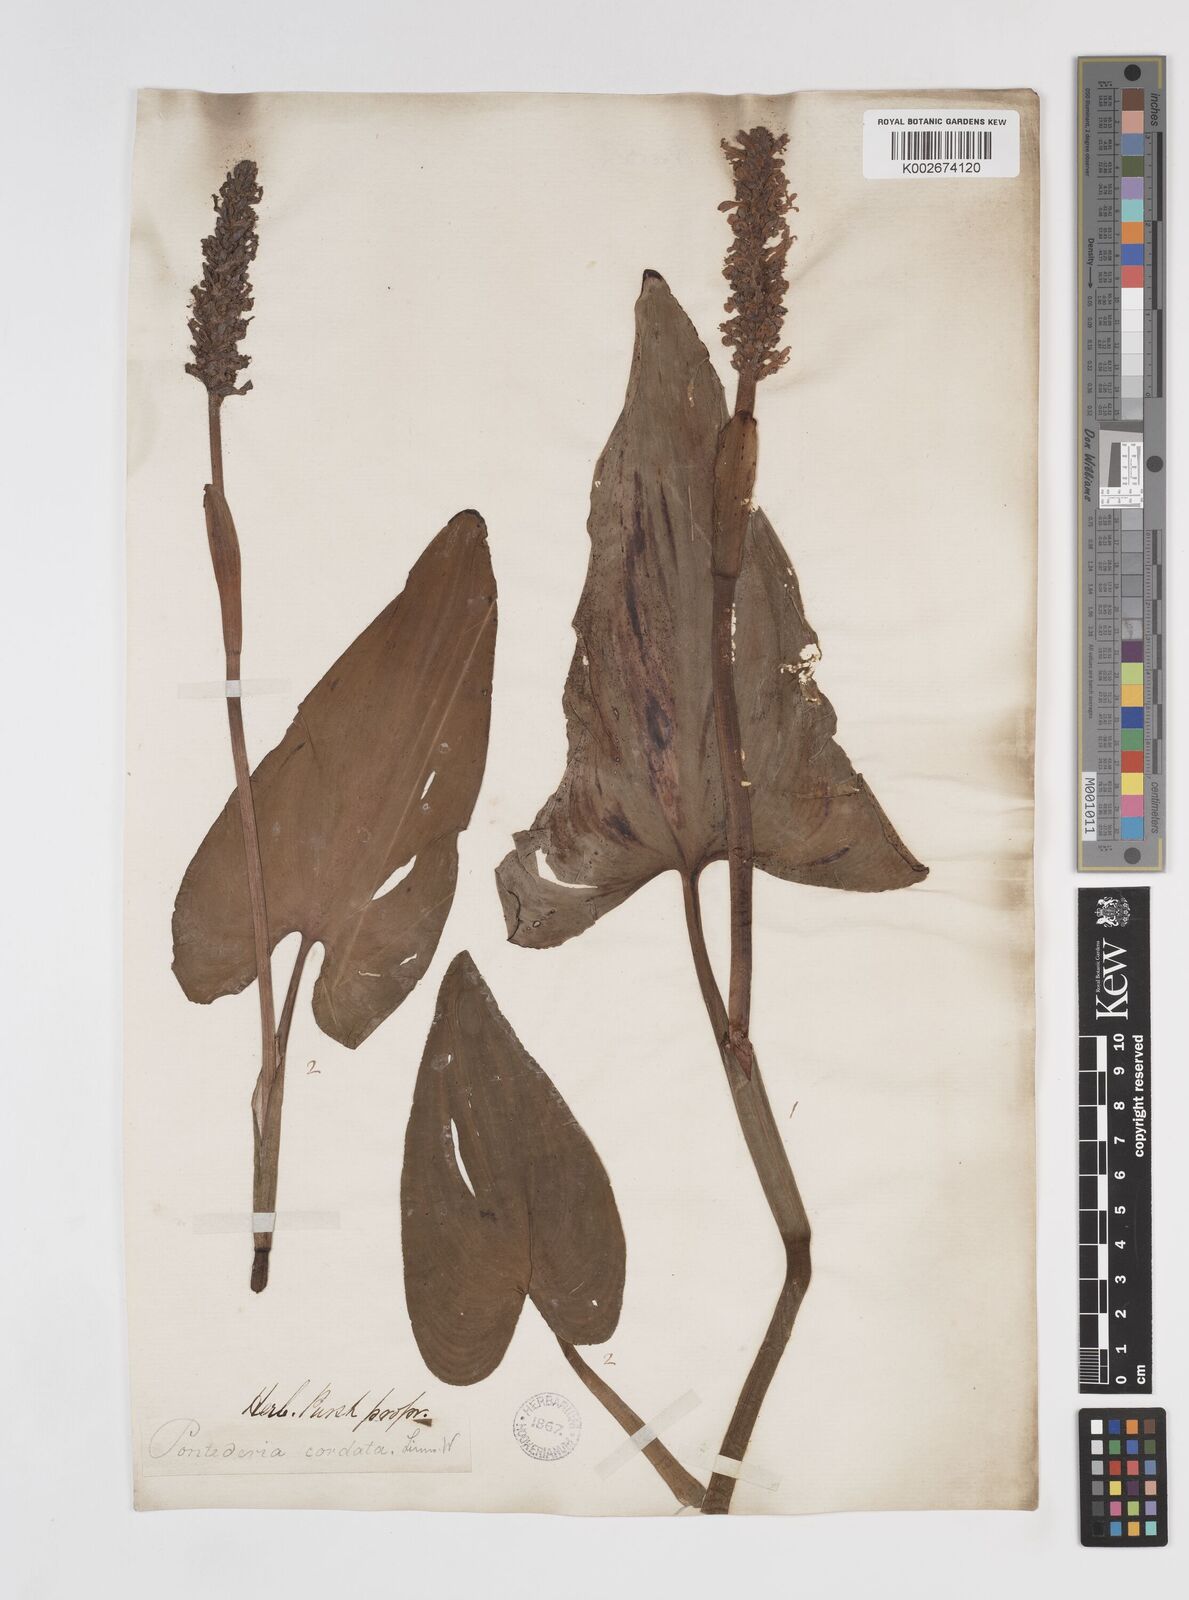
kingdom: Plantae
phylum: Tracheophyta
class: Liliopsida
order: Commelinales
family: Pontederiaceae
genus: Pontederia
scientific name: Pontederia cordata
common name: Pickerelweed
